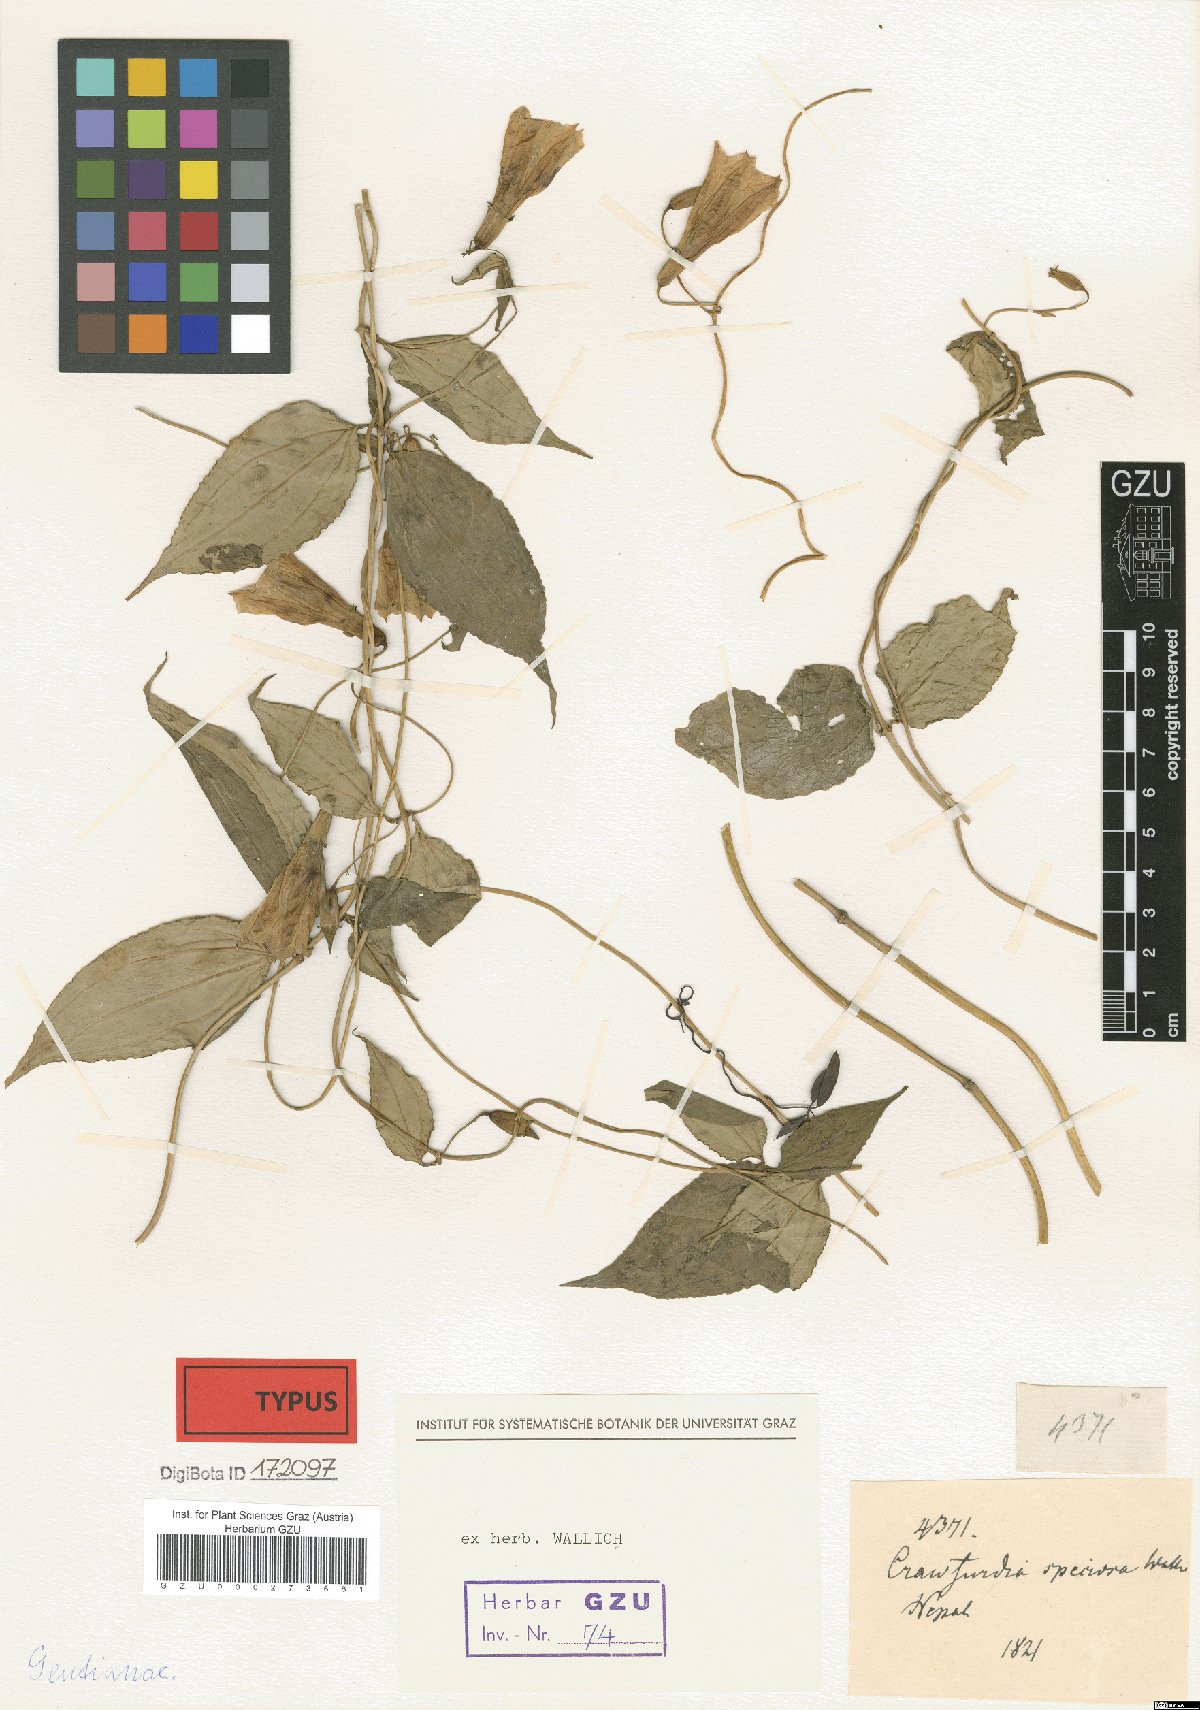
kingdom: Plantae
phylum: Tracheophyta
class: Magnoliopsida
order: Gentianales
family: Gentianaceae
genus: Crawfurdia
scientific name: Crawfurdia speciosa
